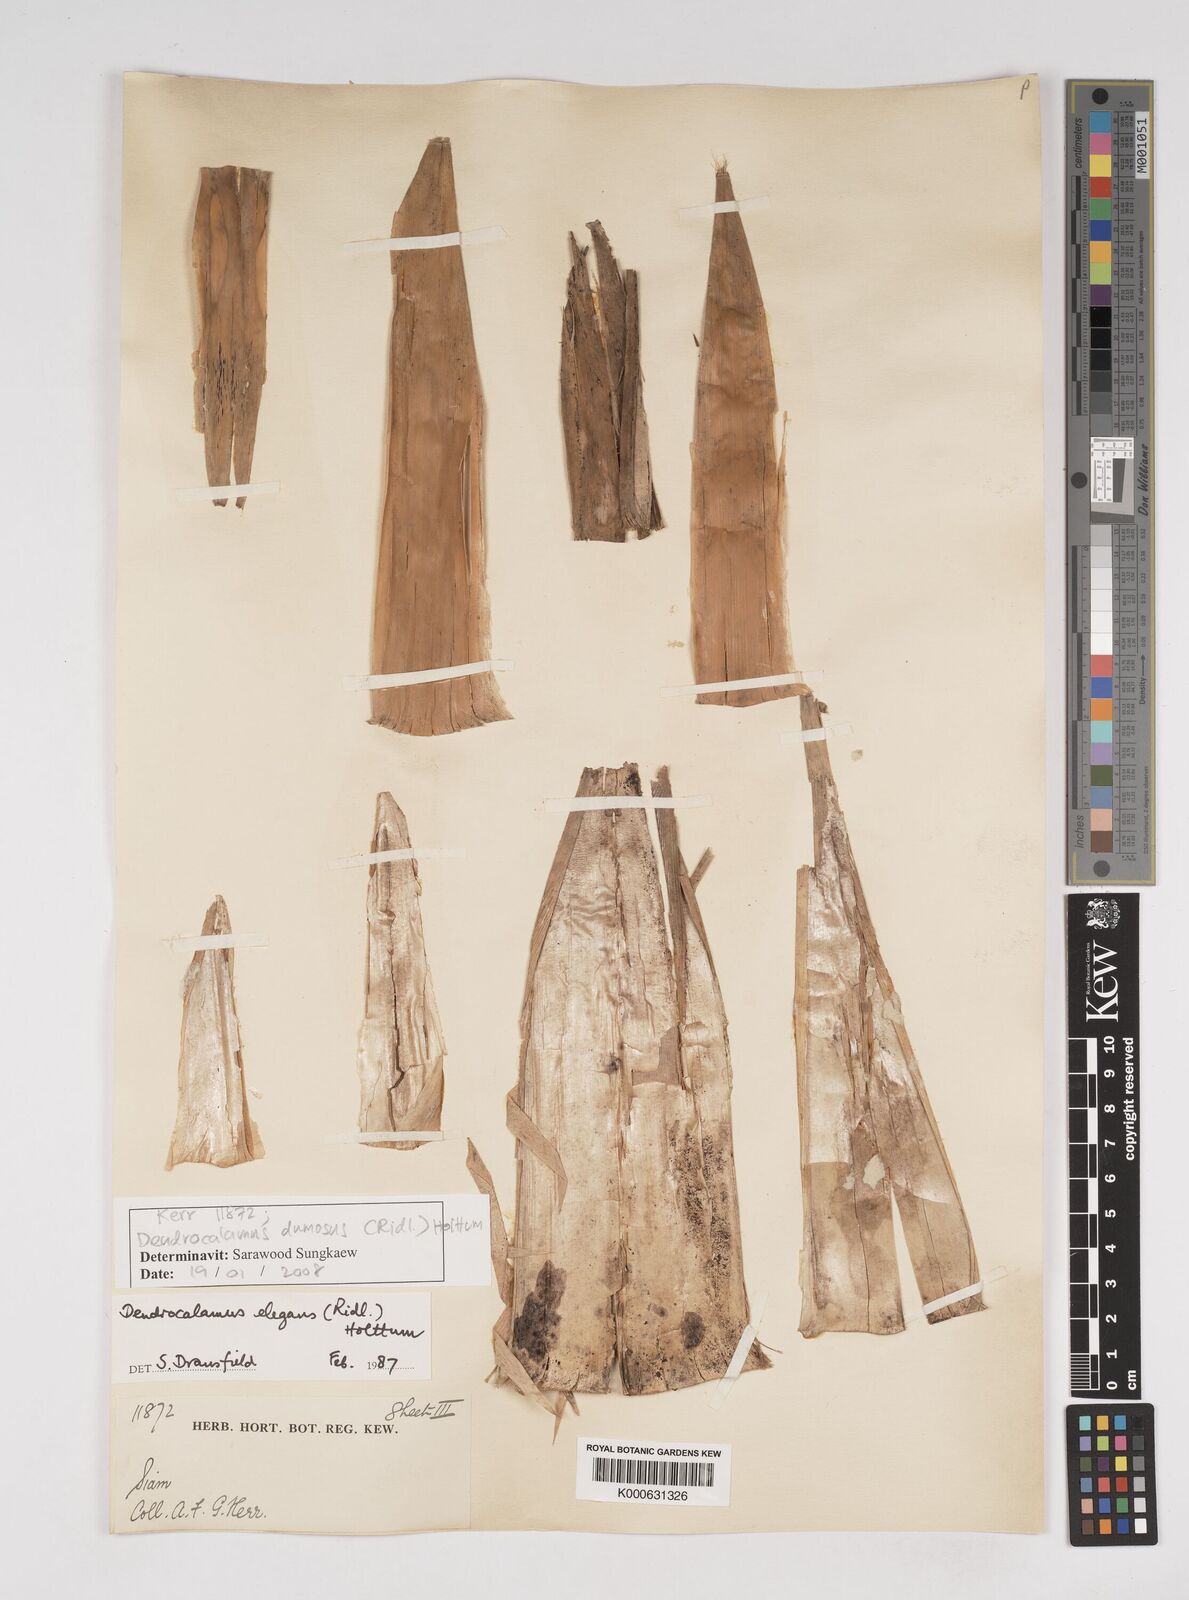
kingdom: Plantae
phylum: Tracheophyta
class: Liliopsida
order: Poales
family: Poaceae
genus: Dendrocalamus
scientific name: Dendrocalamus dumosus
